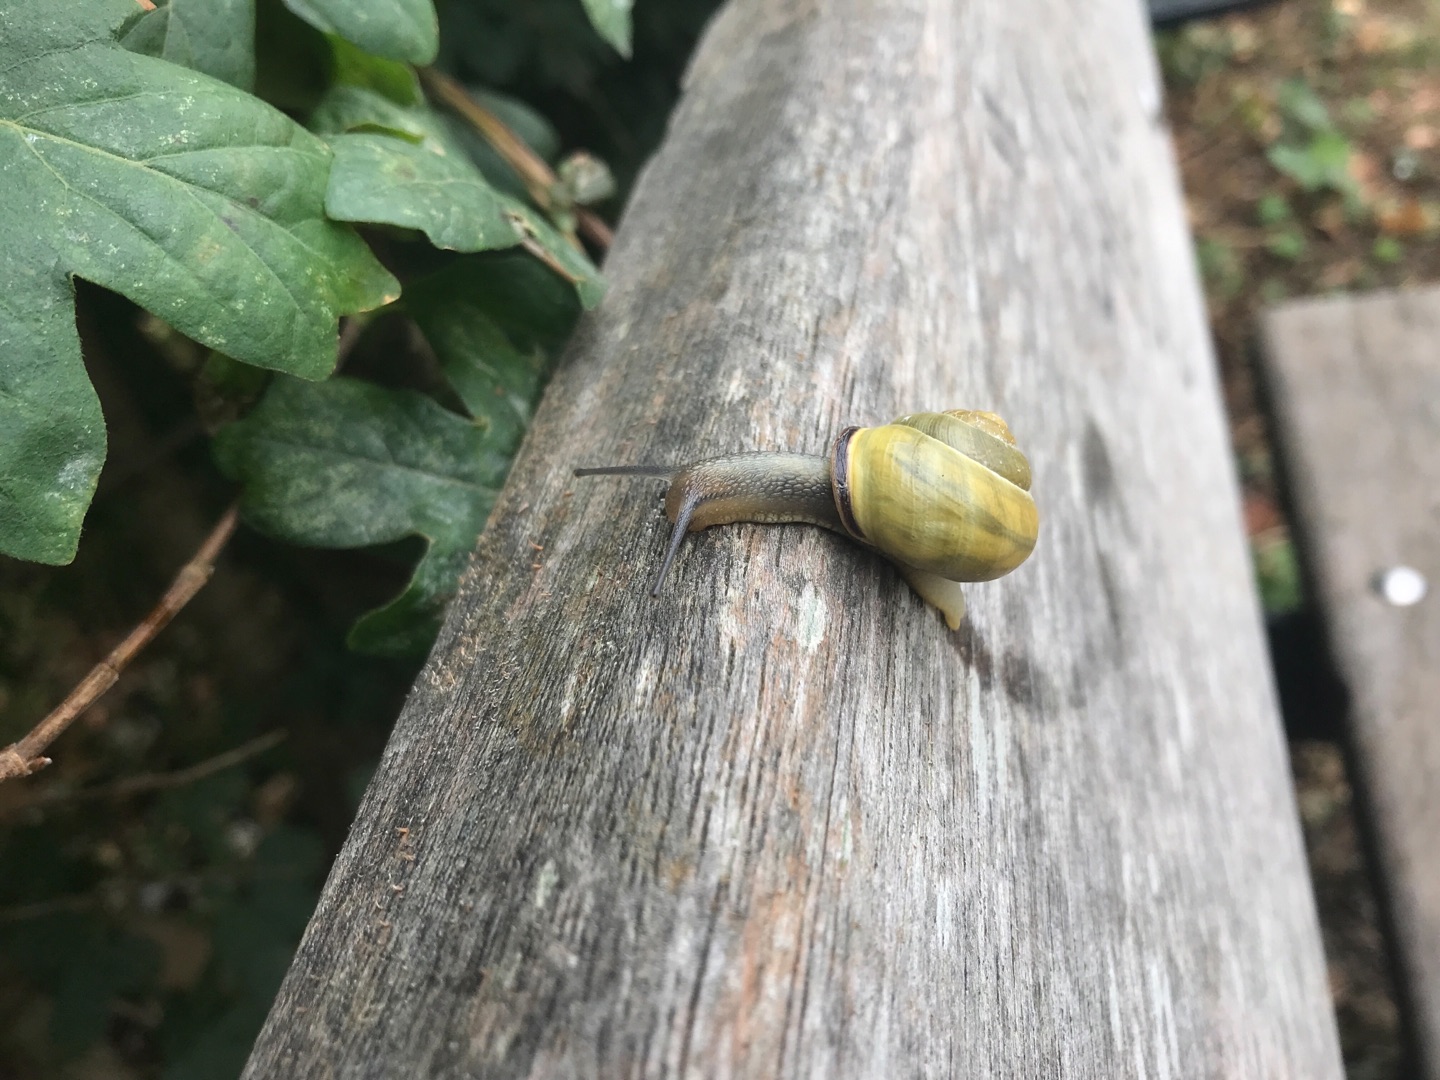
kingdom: Animalia
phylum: Mollusca
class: Gastropoda
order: Stylommatophora
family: Helicidae
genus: Cepaea
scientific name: Cepaea nemoralis
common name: Lundsnegl
